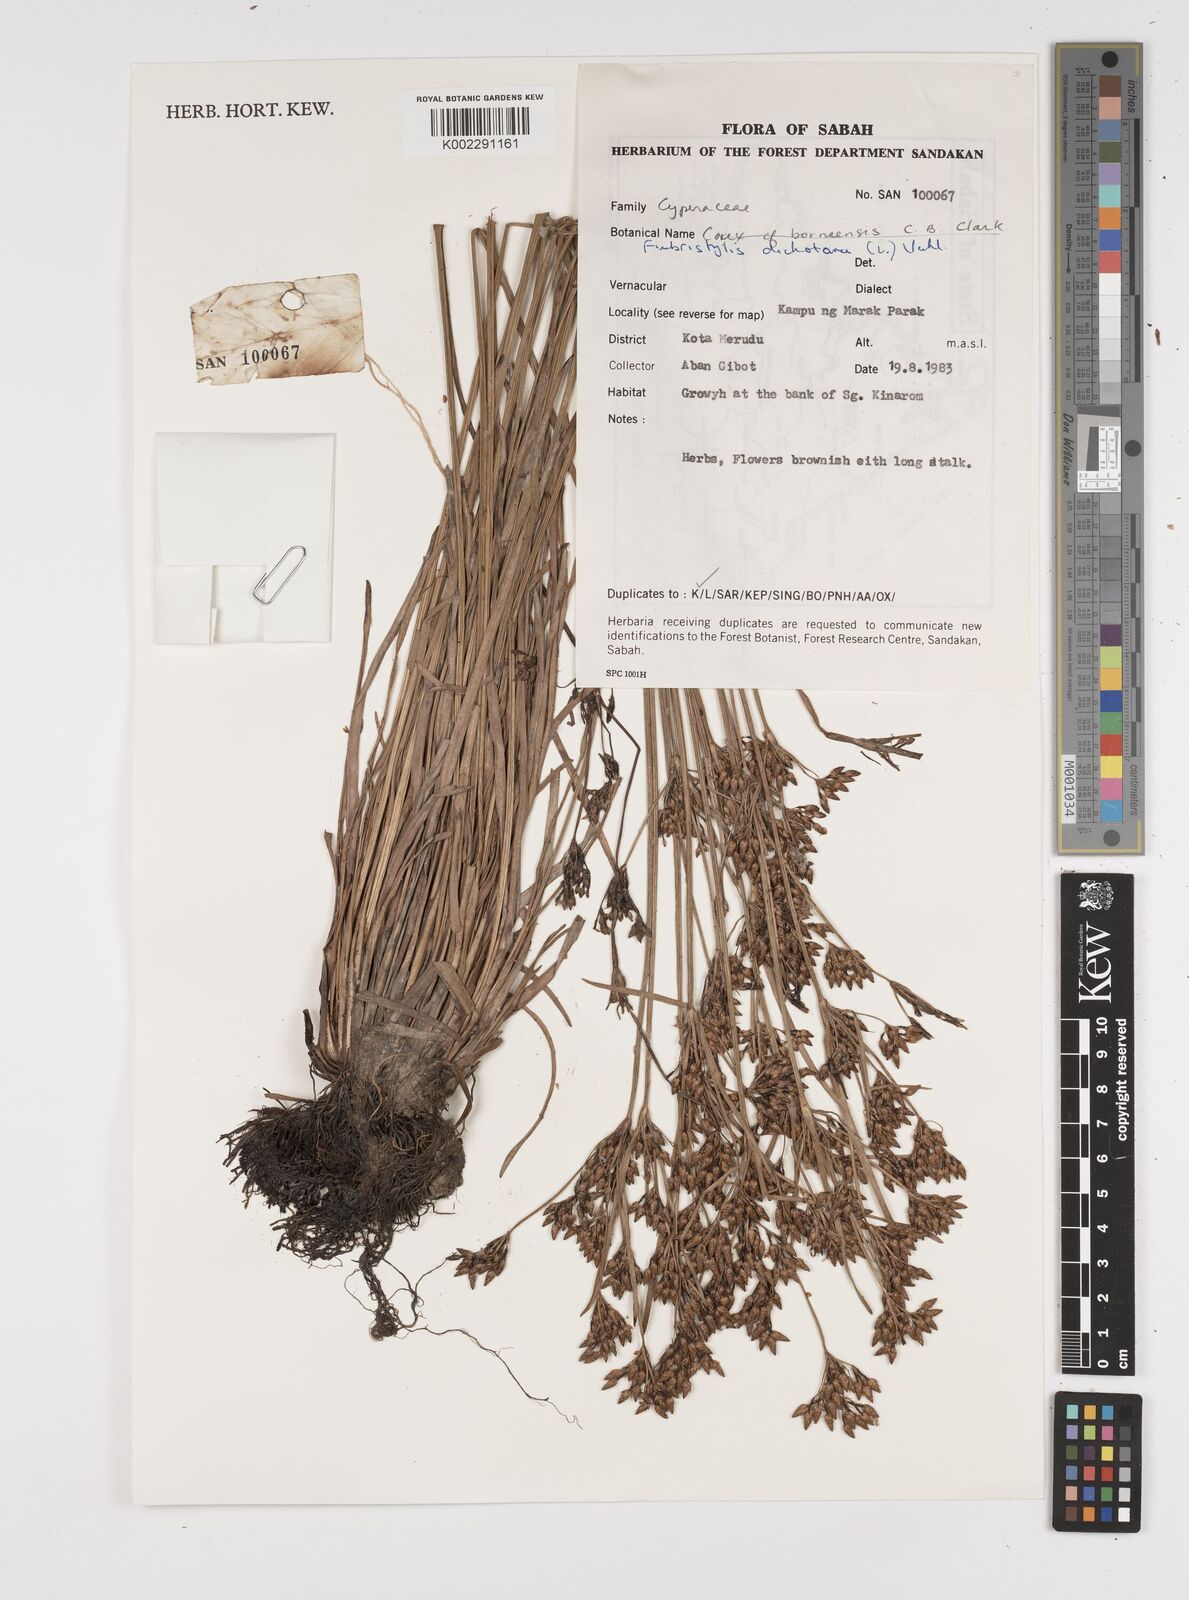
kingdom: Plantae
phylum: Tracheophyta
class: Liliopsida
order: Poales
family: Cyperaceae
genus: Fimbristylis
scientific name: Fimbristylis dichotoma
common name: Forked fimbry
